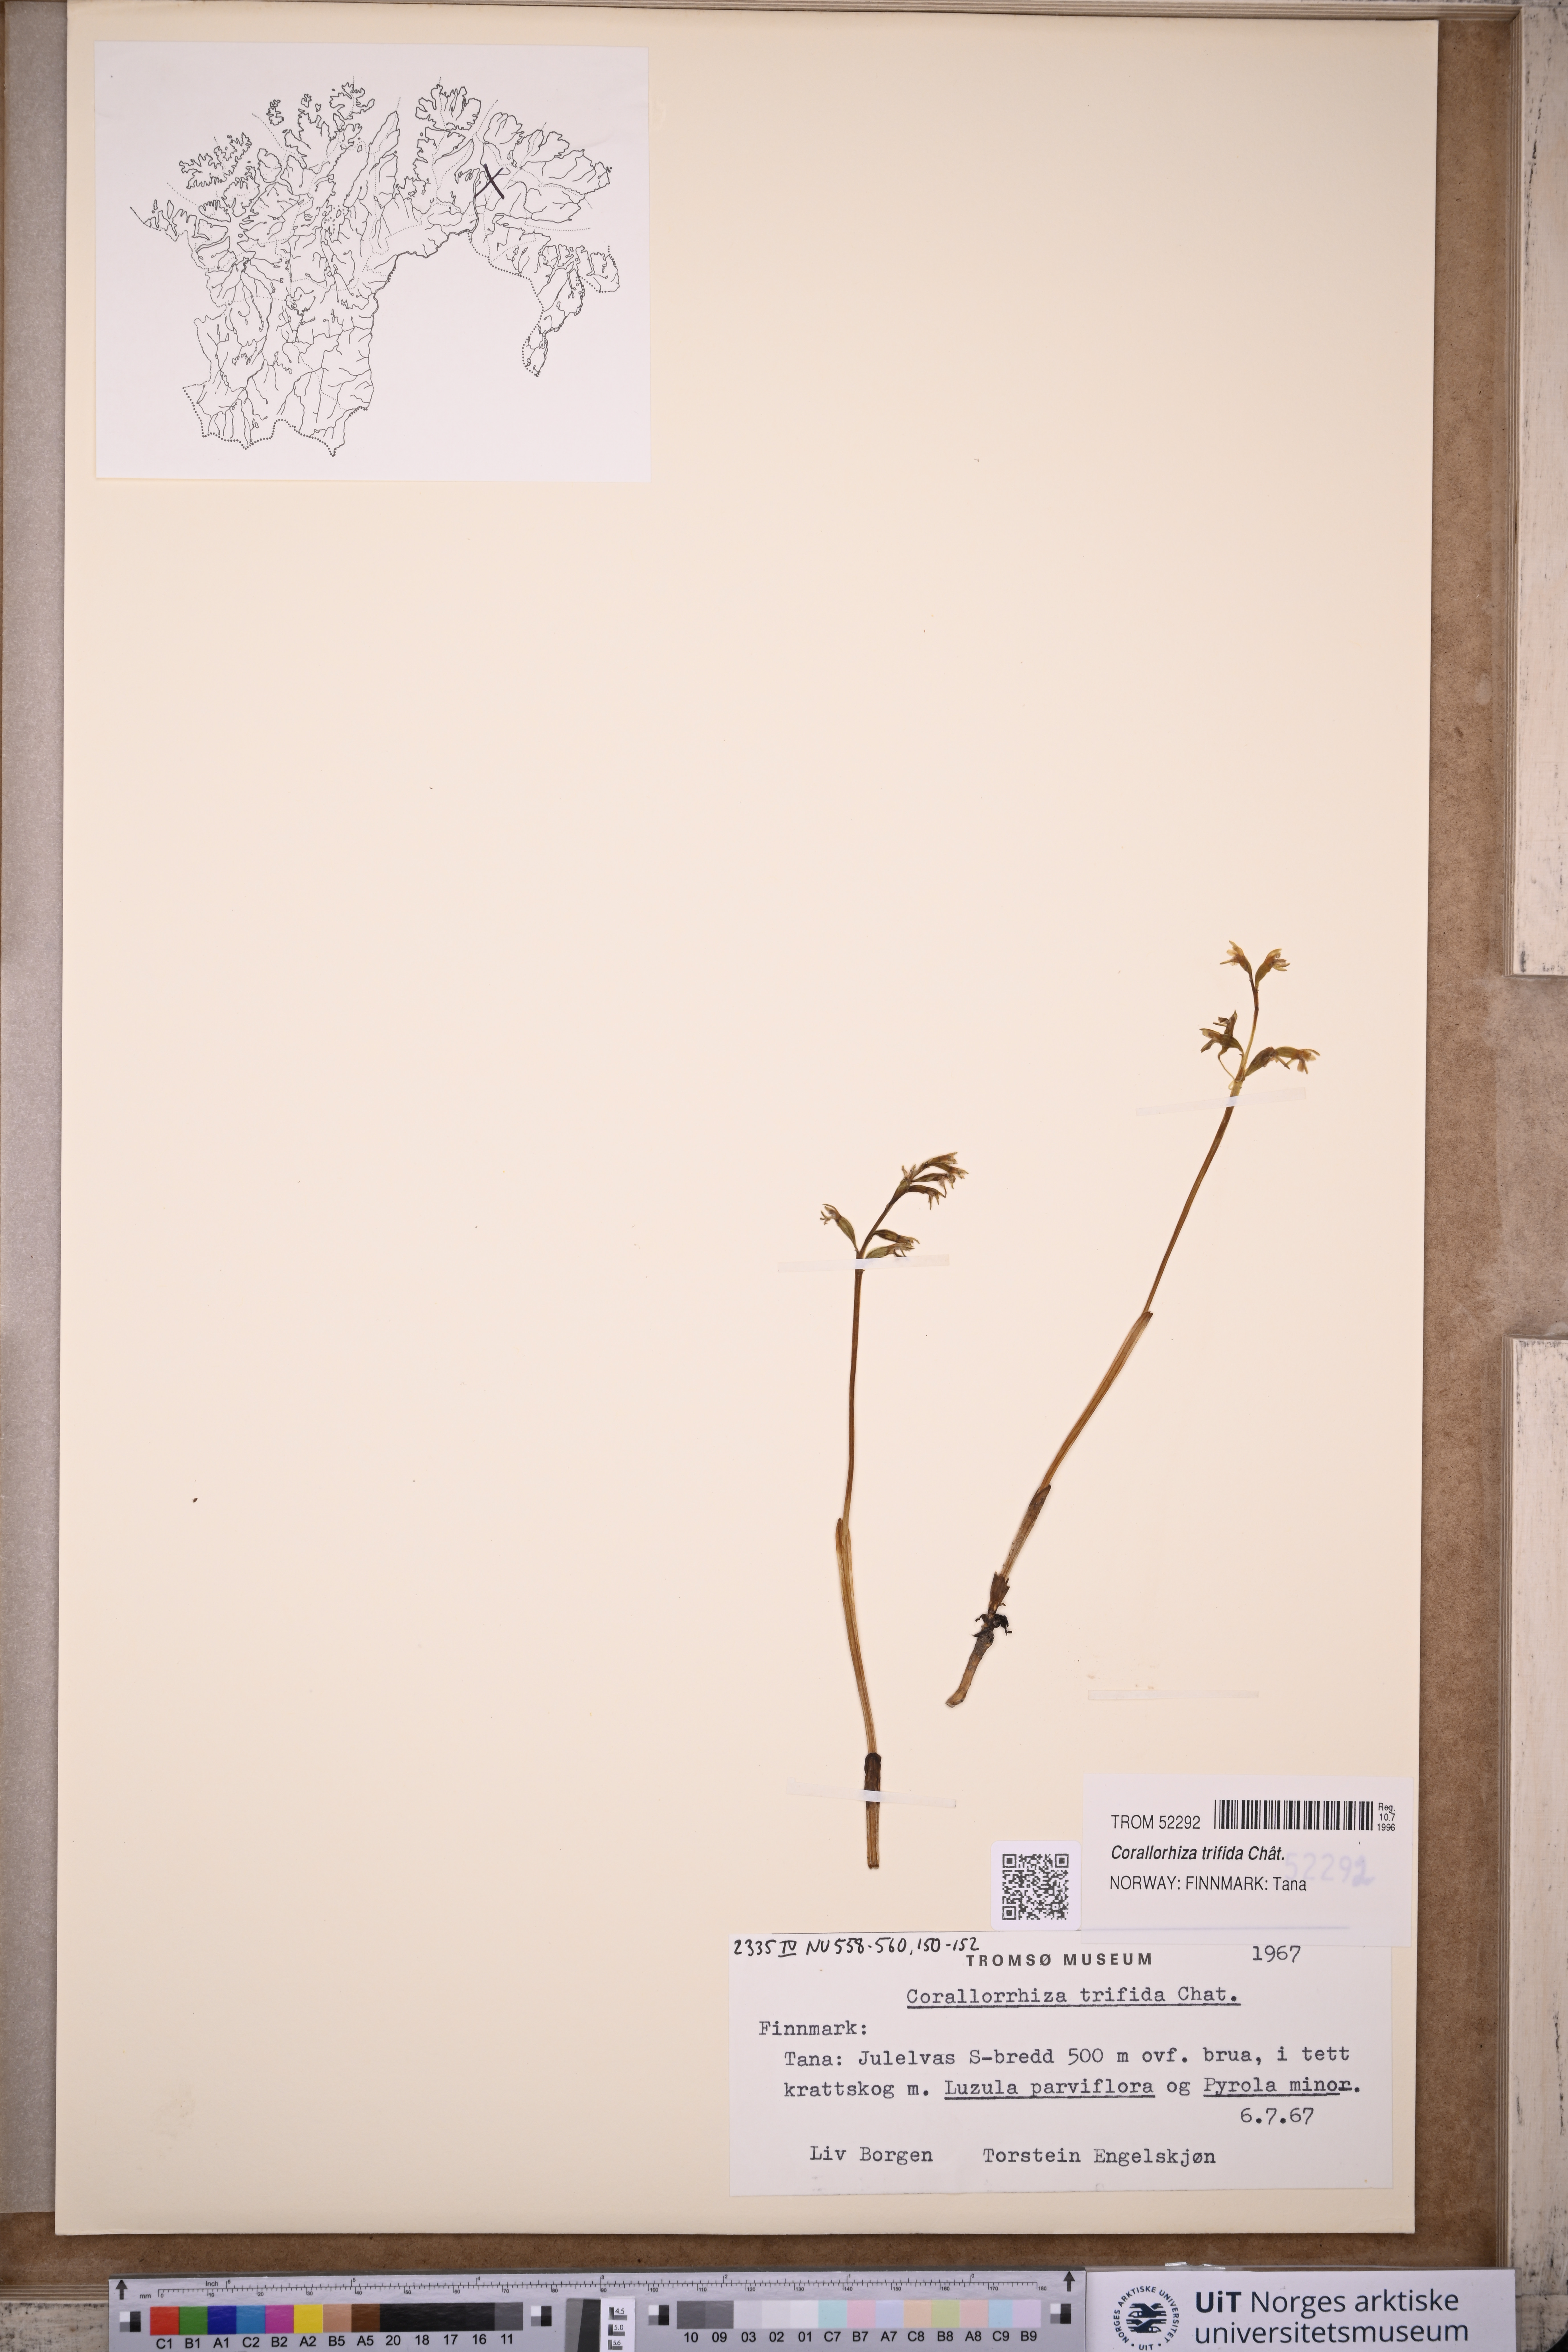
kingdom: Plantae
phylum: Tracheophyta
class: Liliopsida
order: Asparagales
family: Orchidaceae
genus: Corallorhiza
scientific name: Corallorhiza trifida
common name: Yellow coralroot
